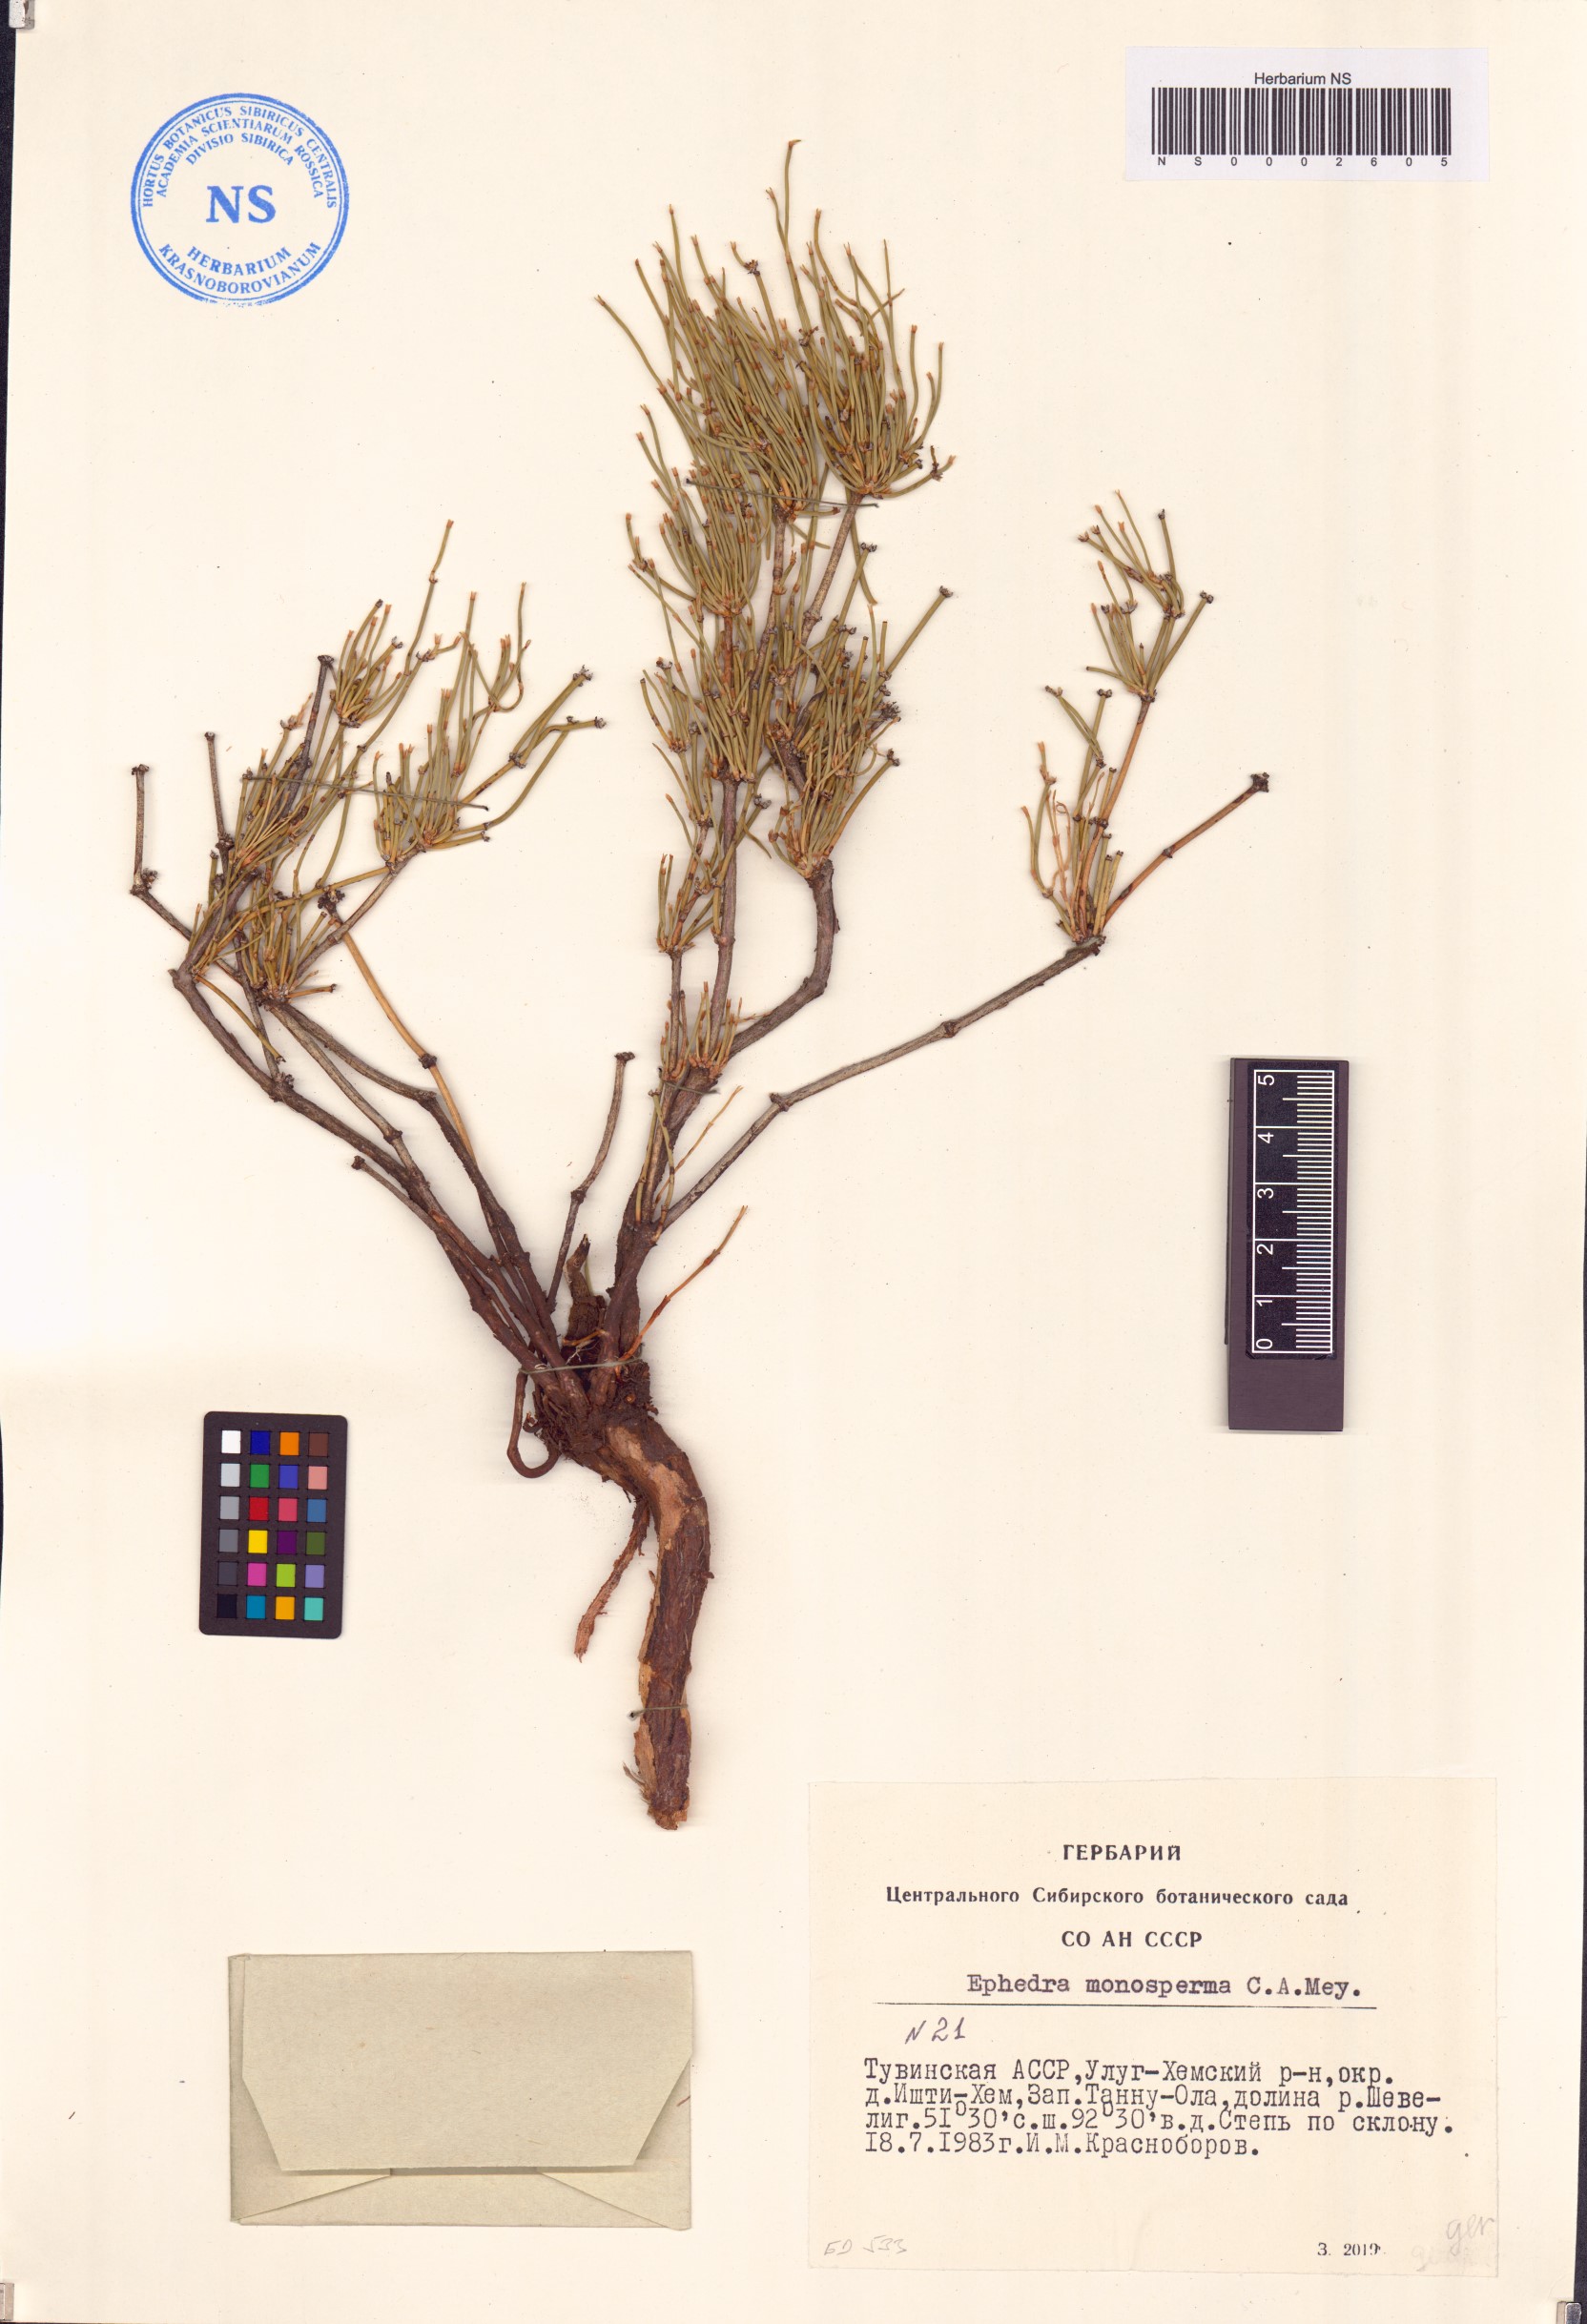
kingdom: Plantae
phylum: Tracheophyta
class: Gnetopsida
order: Ephedrales
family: Ephedraceae
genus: Ephedra
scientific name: Ephedra monosperma
